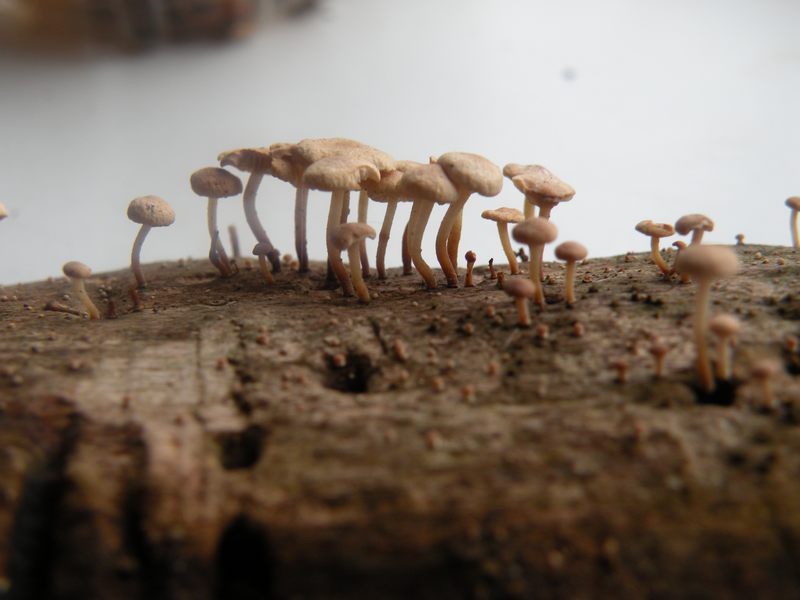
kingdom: Fungi
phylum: Basidiomycota
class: Agaricomycetes
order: Agaricales
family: Omphalotaceae
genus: Collybiopsis
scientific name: Collybiopsis ramealis
